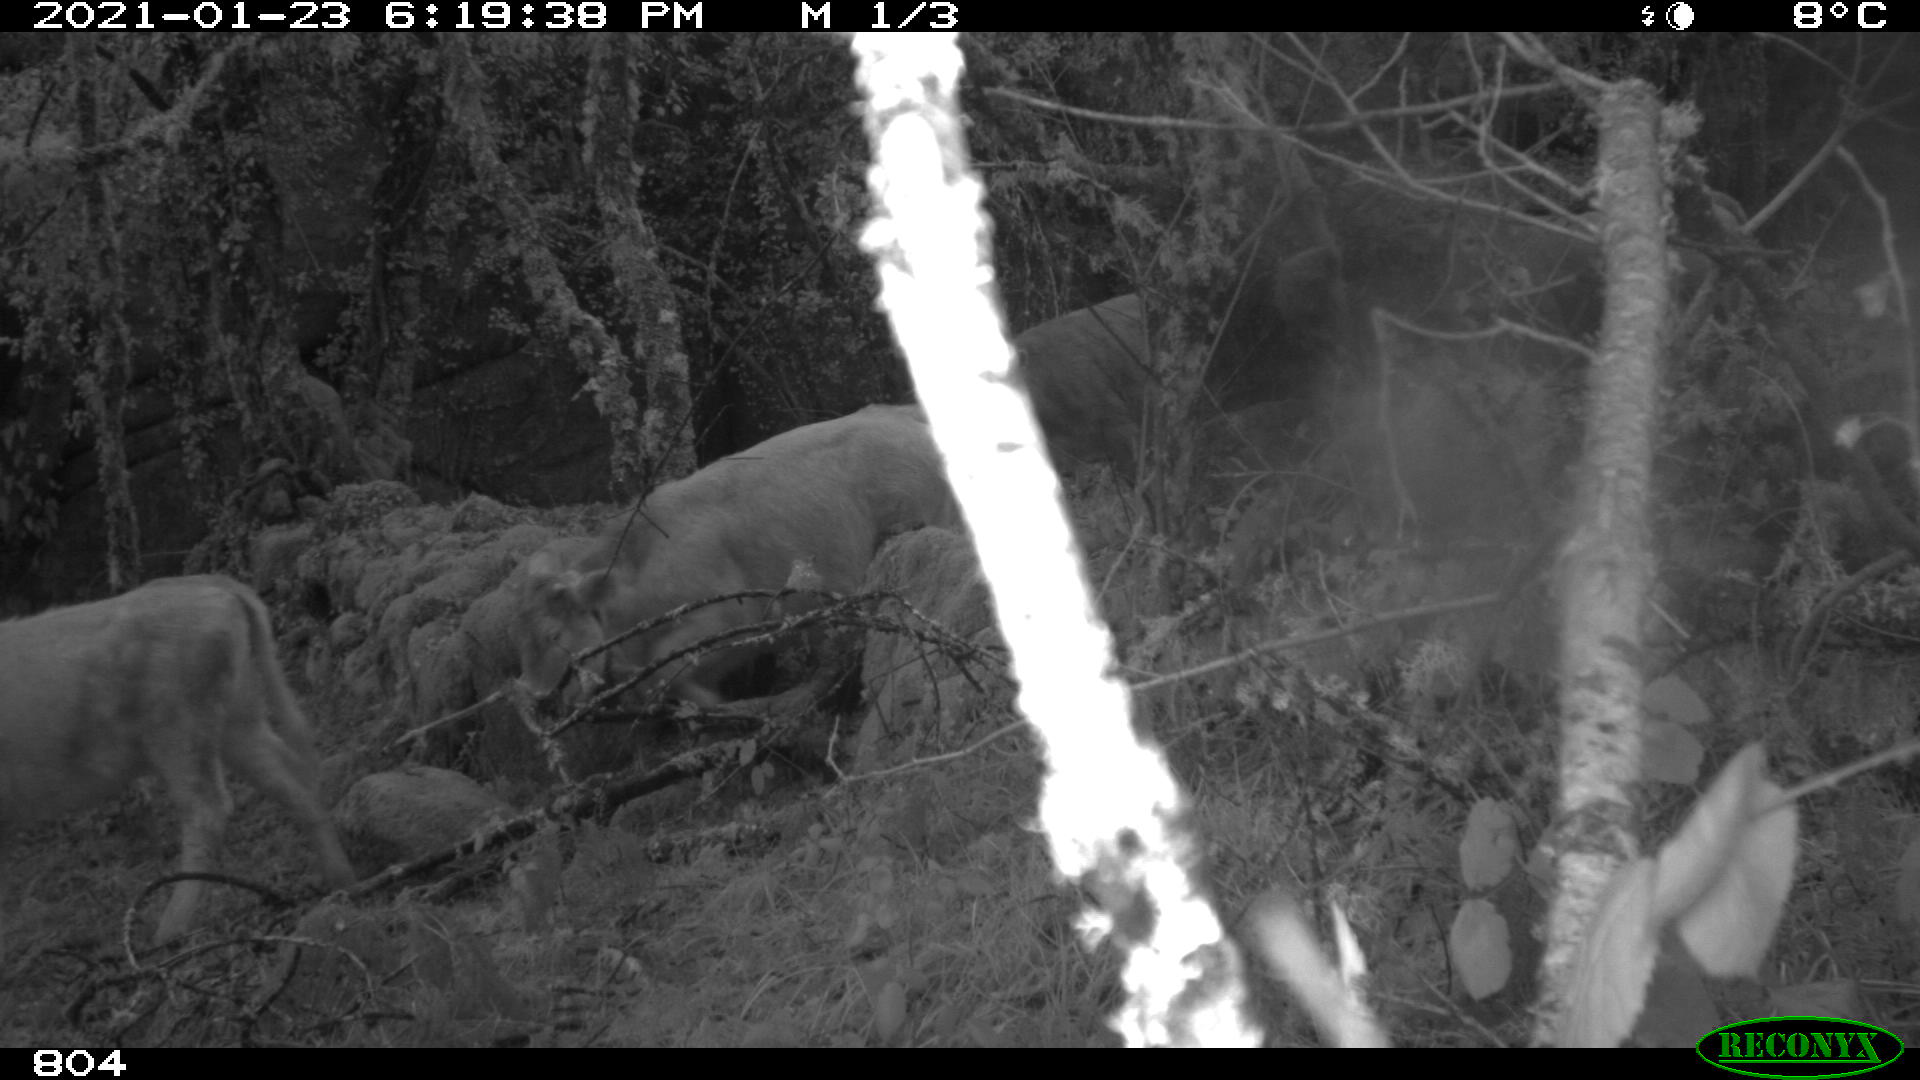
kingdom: Animalia
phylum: Chordata
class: Mammalia
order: Artiodactyla
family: Bovidae
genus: Bos
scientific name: Bos taurus
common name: Domesticated cattle
